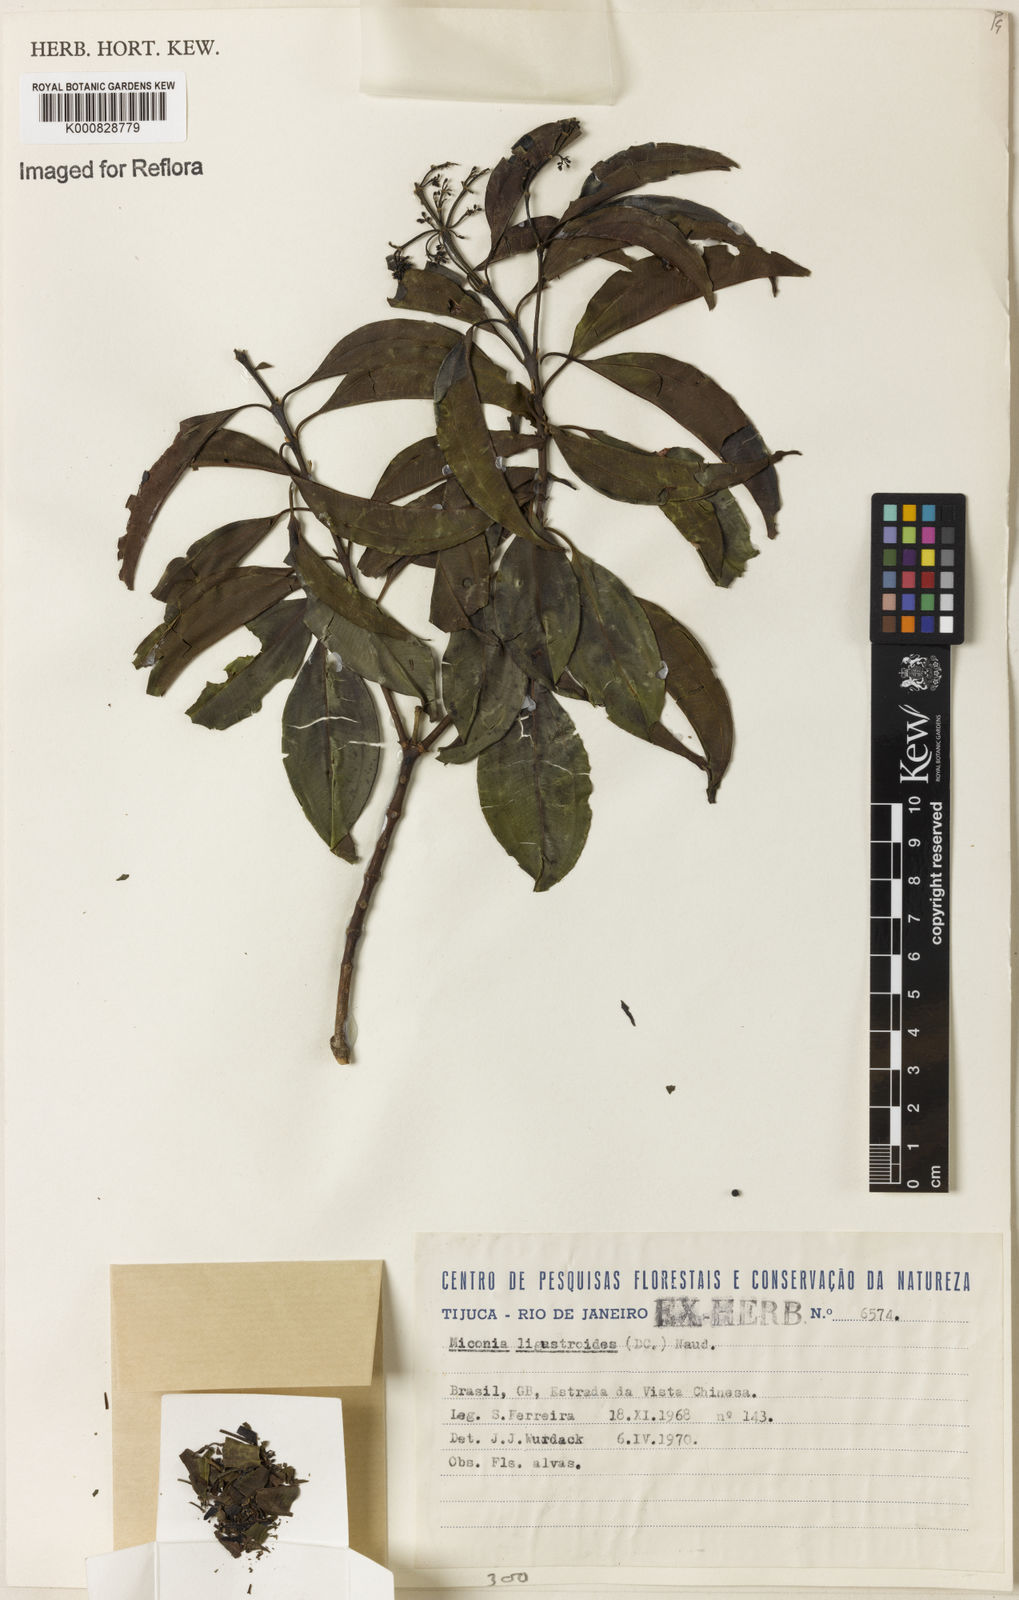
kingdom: Plantae
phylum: Tracheophyta
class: Magnoliopsida
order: Myrtales
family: Melastomataceae
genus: Miconia
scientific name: Miconia ligustroides
